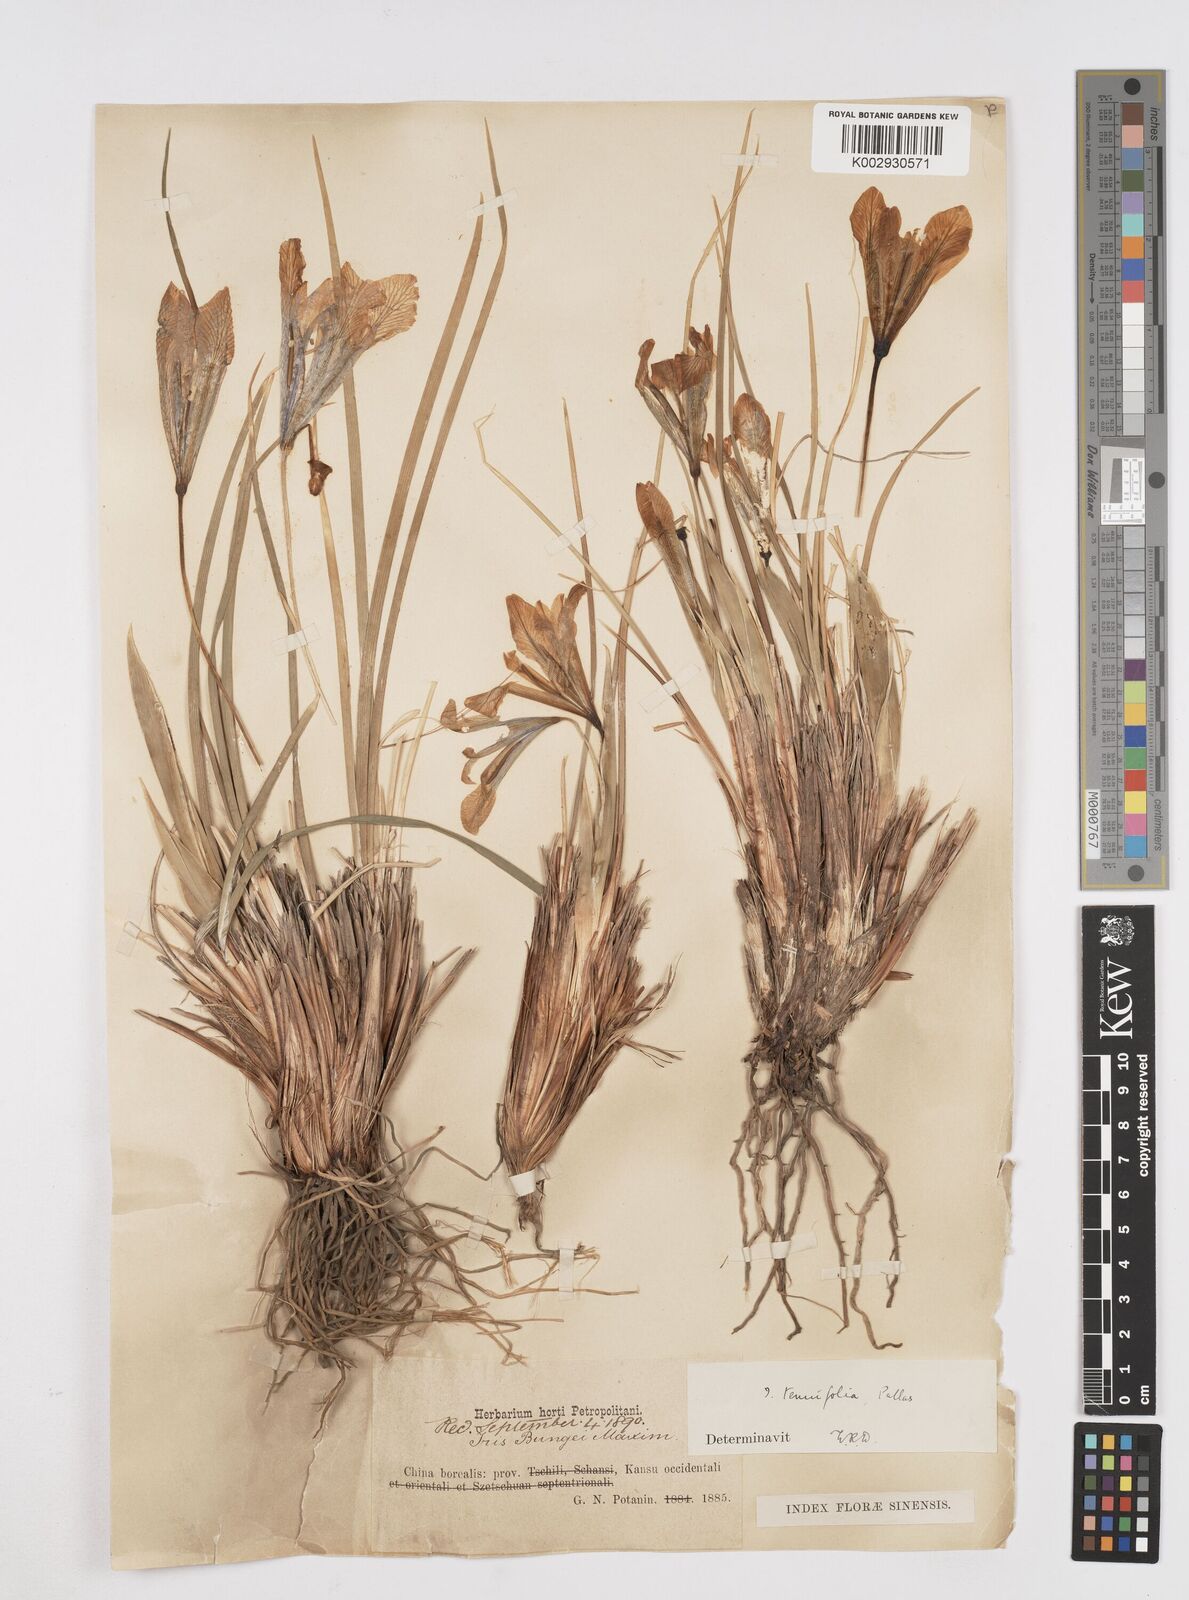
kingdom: Plantae
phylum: Tracheophyta
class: Liliopsida
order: Asparagales
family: Iridaceae
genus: Iris
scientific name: Iris tenuifolia
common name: Slender-leaf iris
